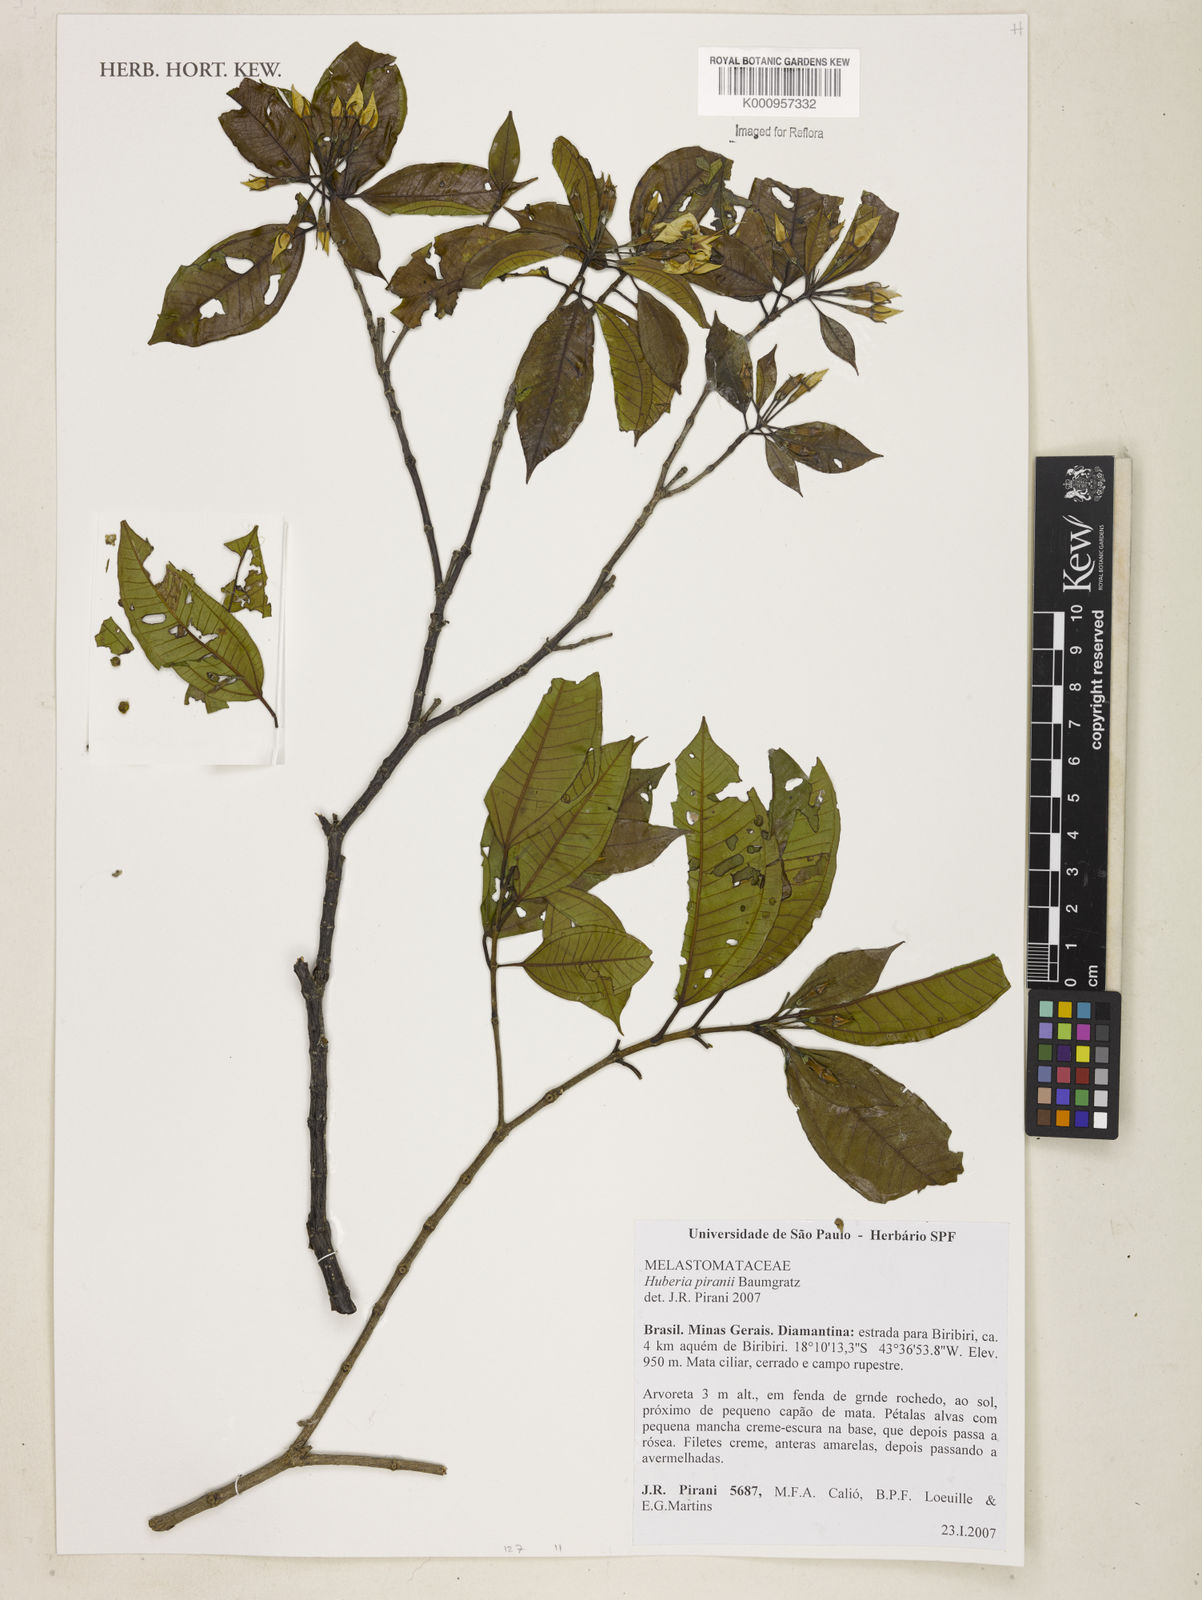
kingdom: Plantae
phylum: Tracheophyta
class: Magnoliopsida
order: Myrtales
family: Melastomataceae
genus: Huberia
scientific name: Huberia piranii
